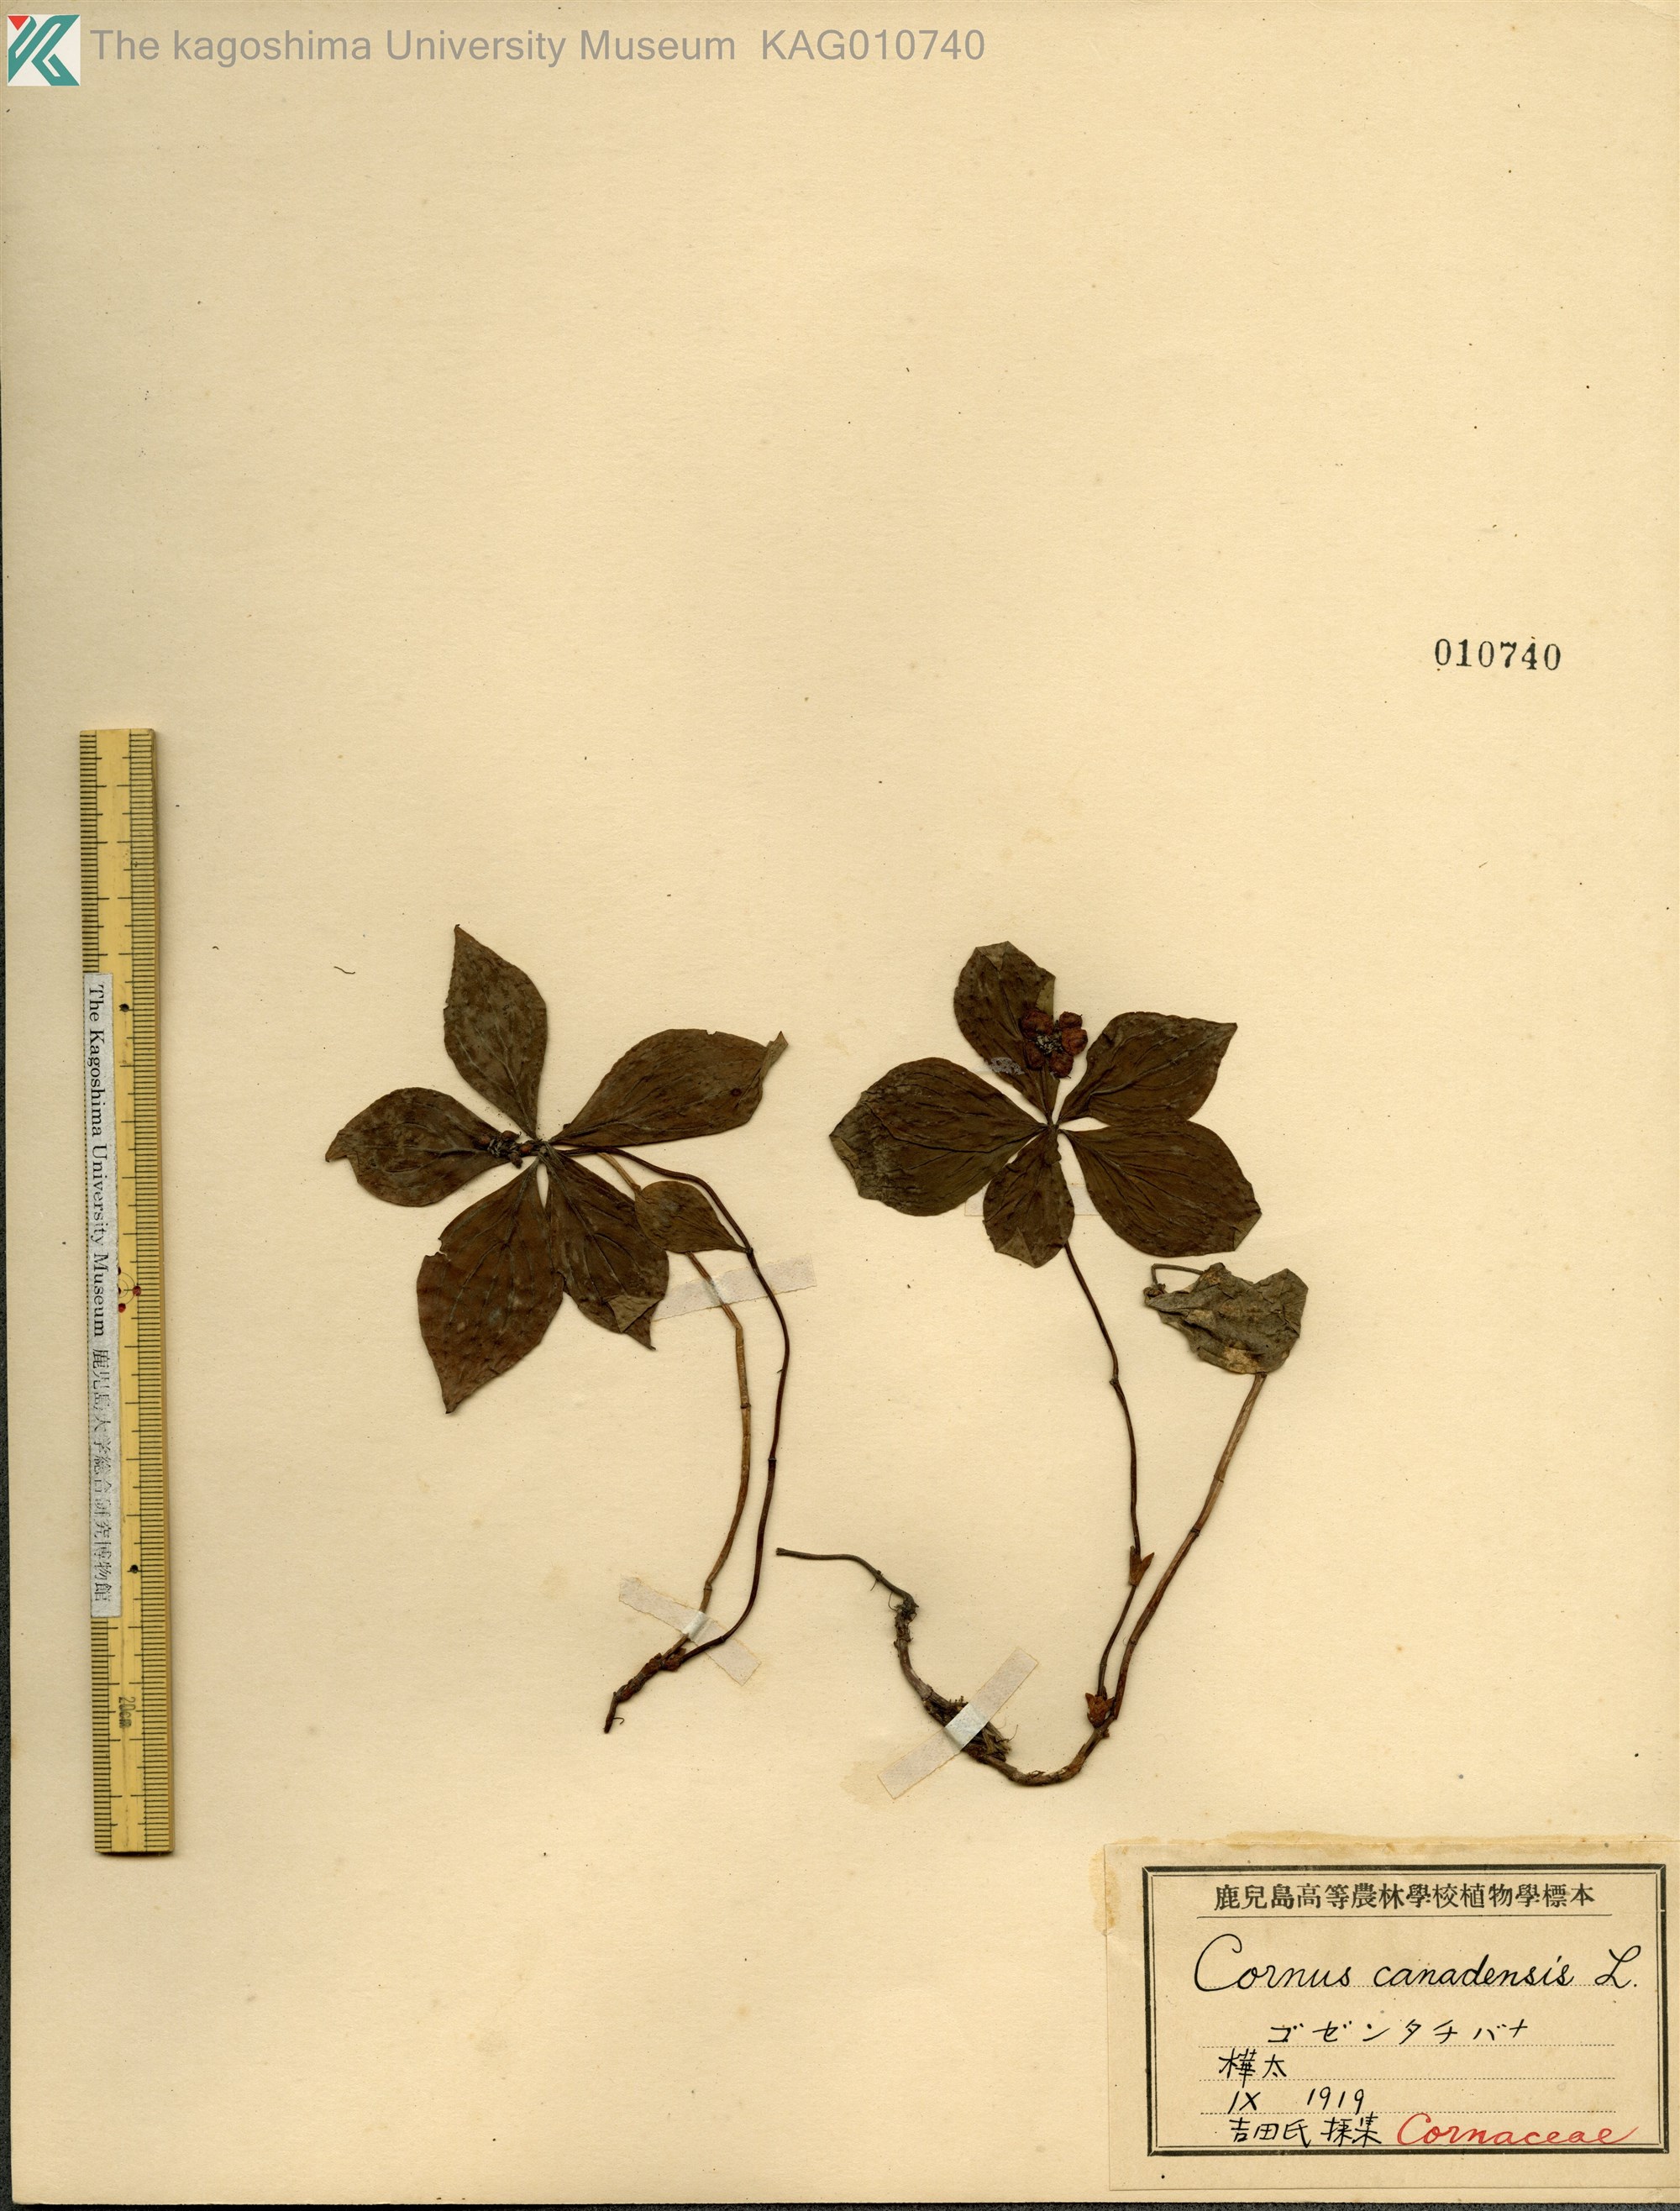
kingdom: Plantae
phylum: Tracheophyta
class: Magnoliopsida
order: Cornales
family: Cornaceae
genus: Cornus
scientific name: Cornus canadensis
